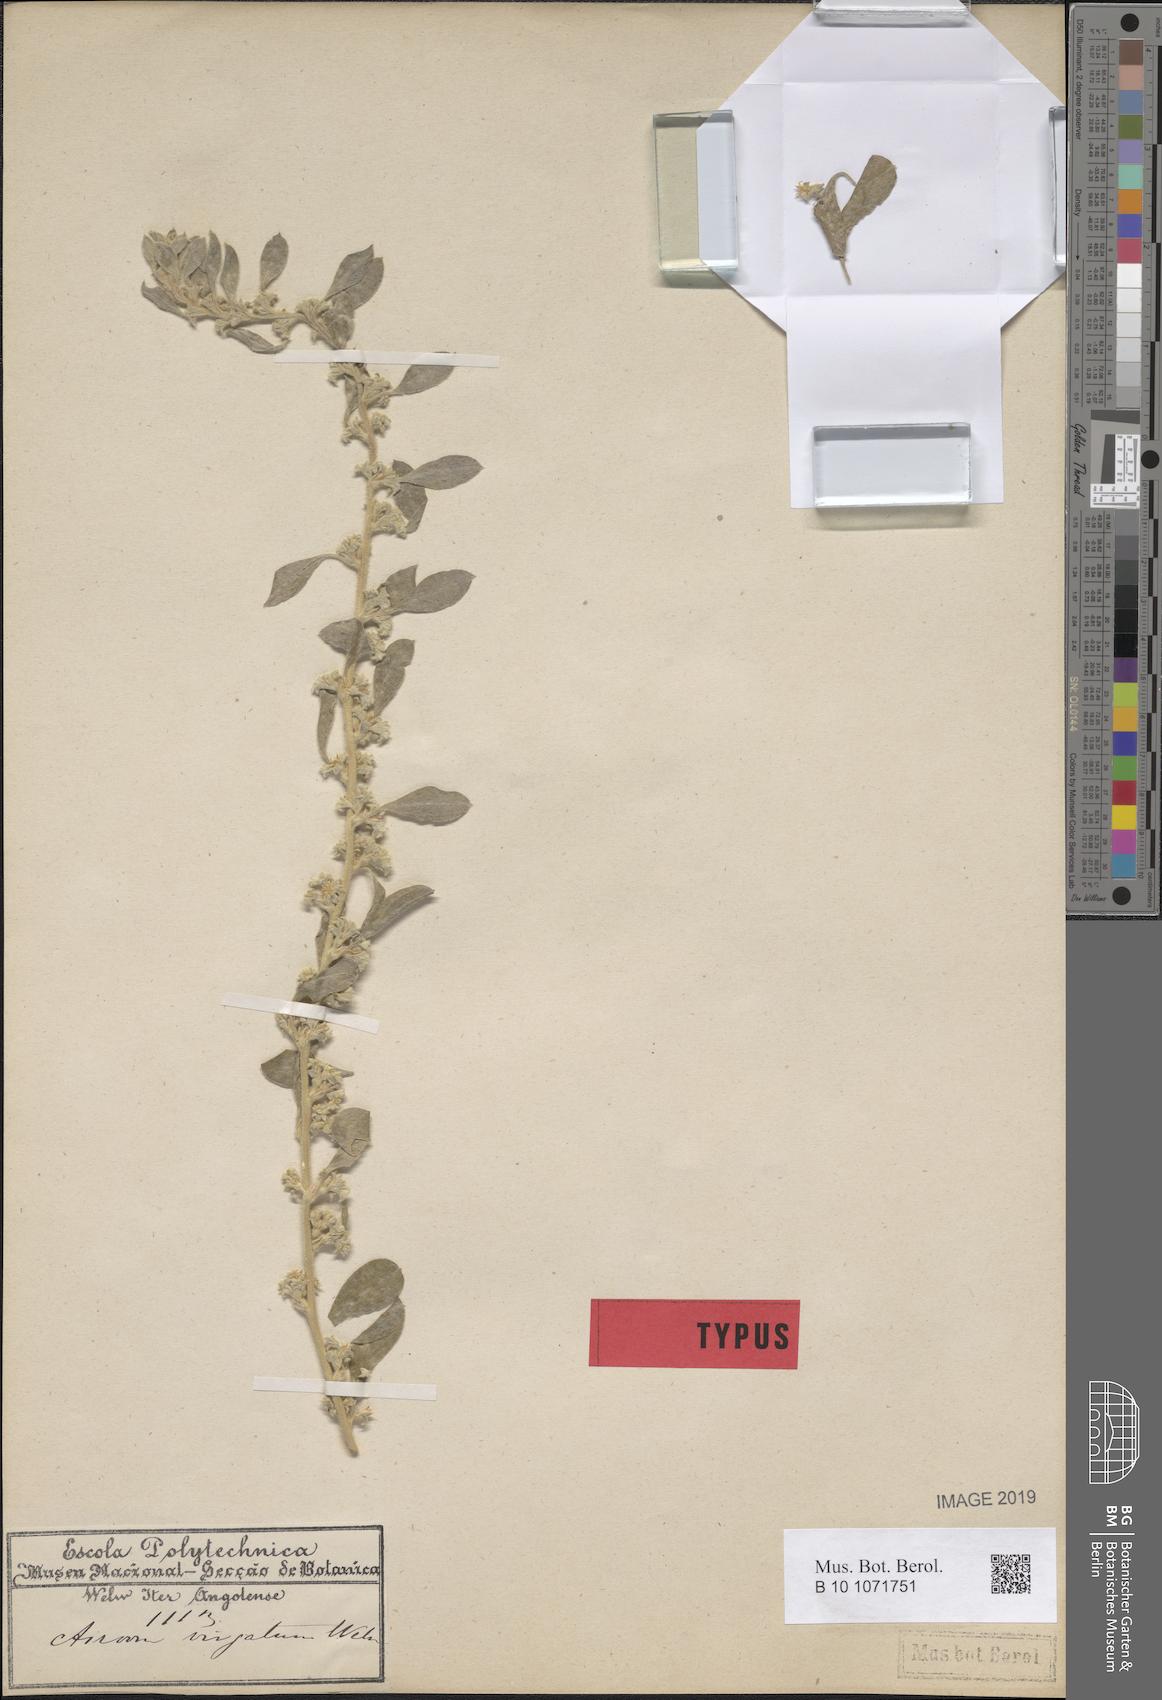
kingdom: Plantae
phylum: Tracheophyta
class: Magnoliopsida
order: Caryophyllales
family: Aizoaceae
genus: Aizoon
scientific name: Aizoon virgatum
